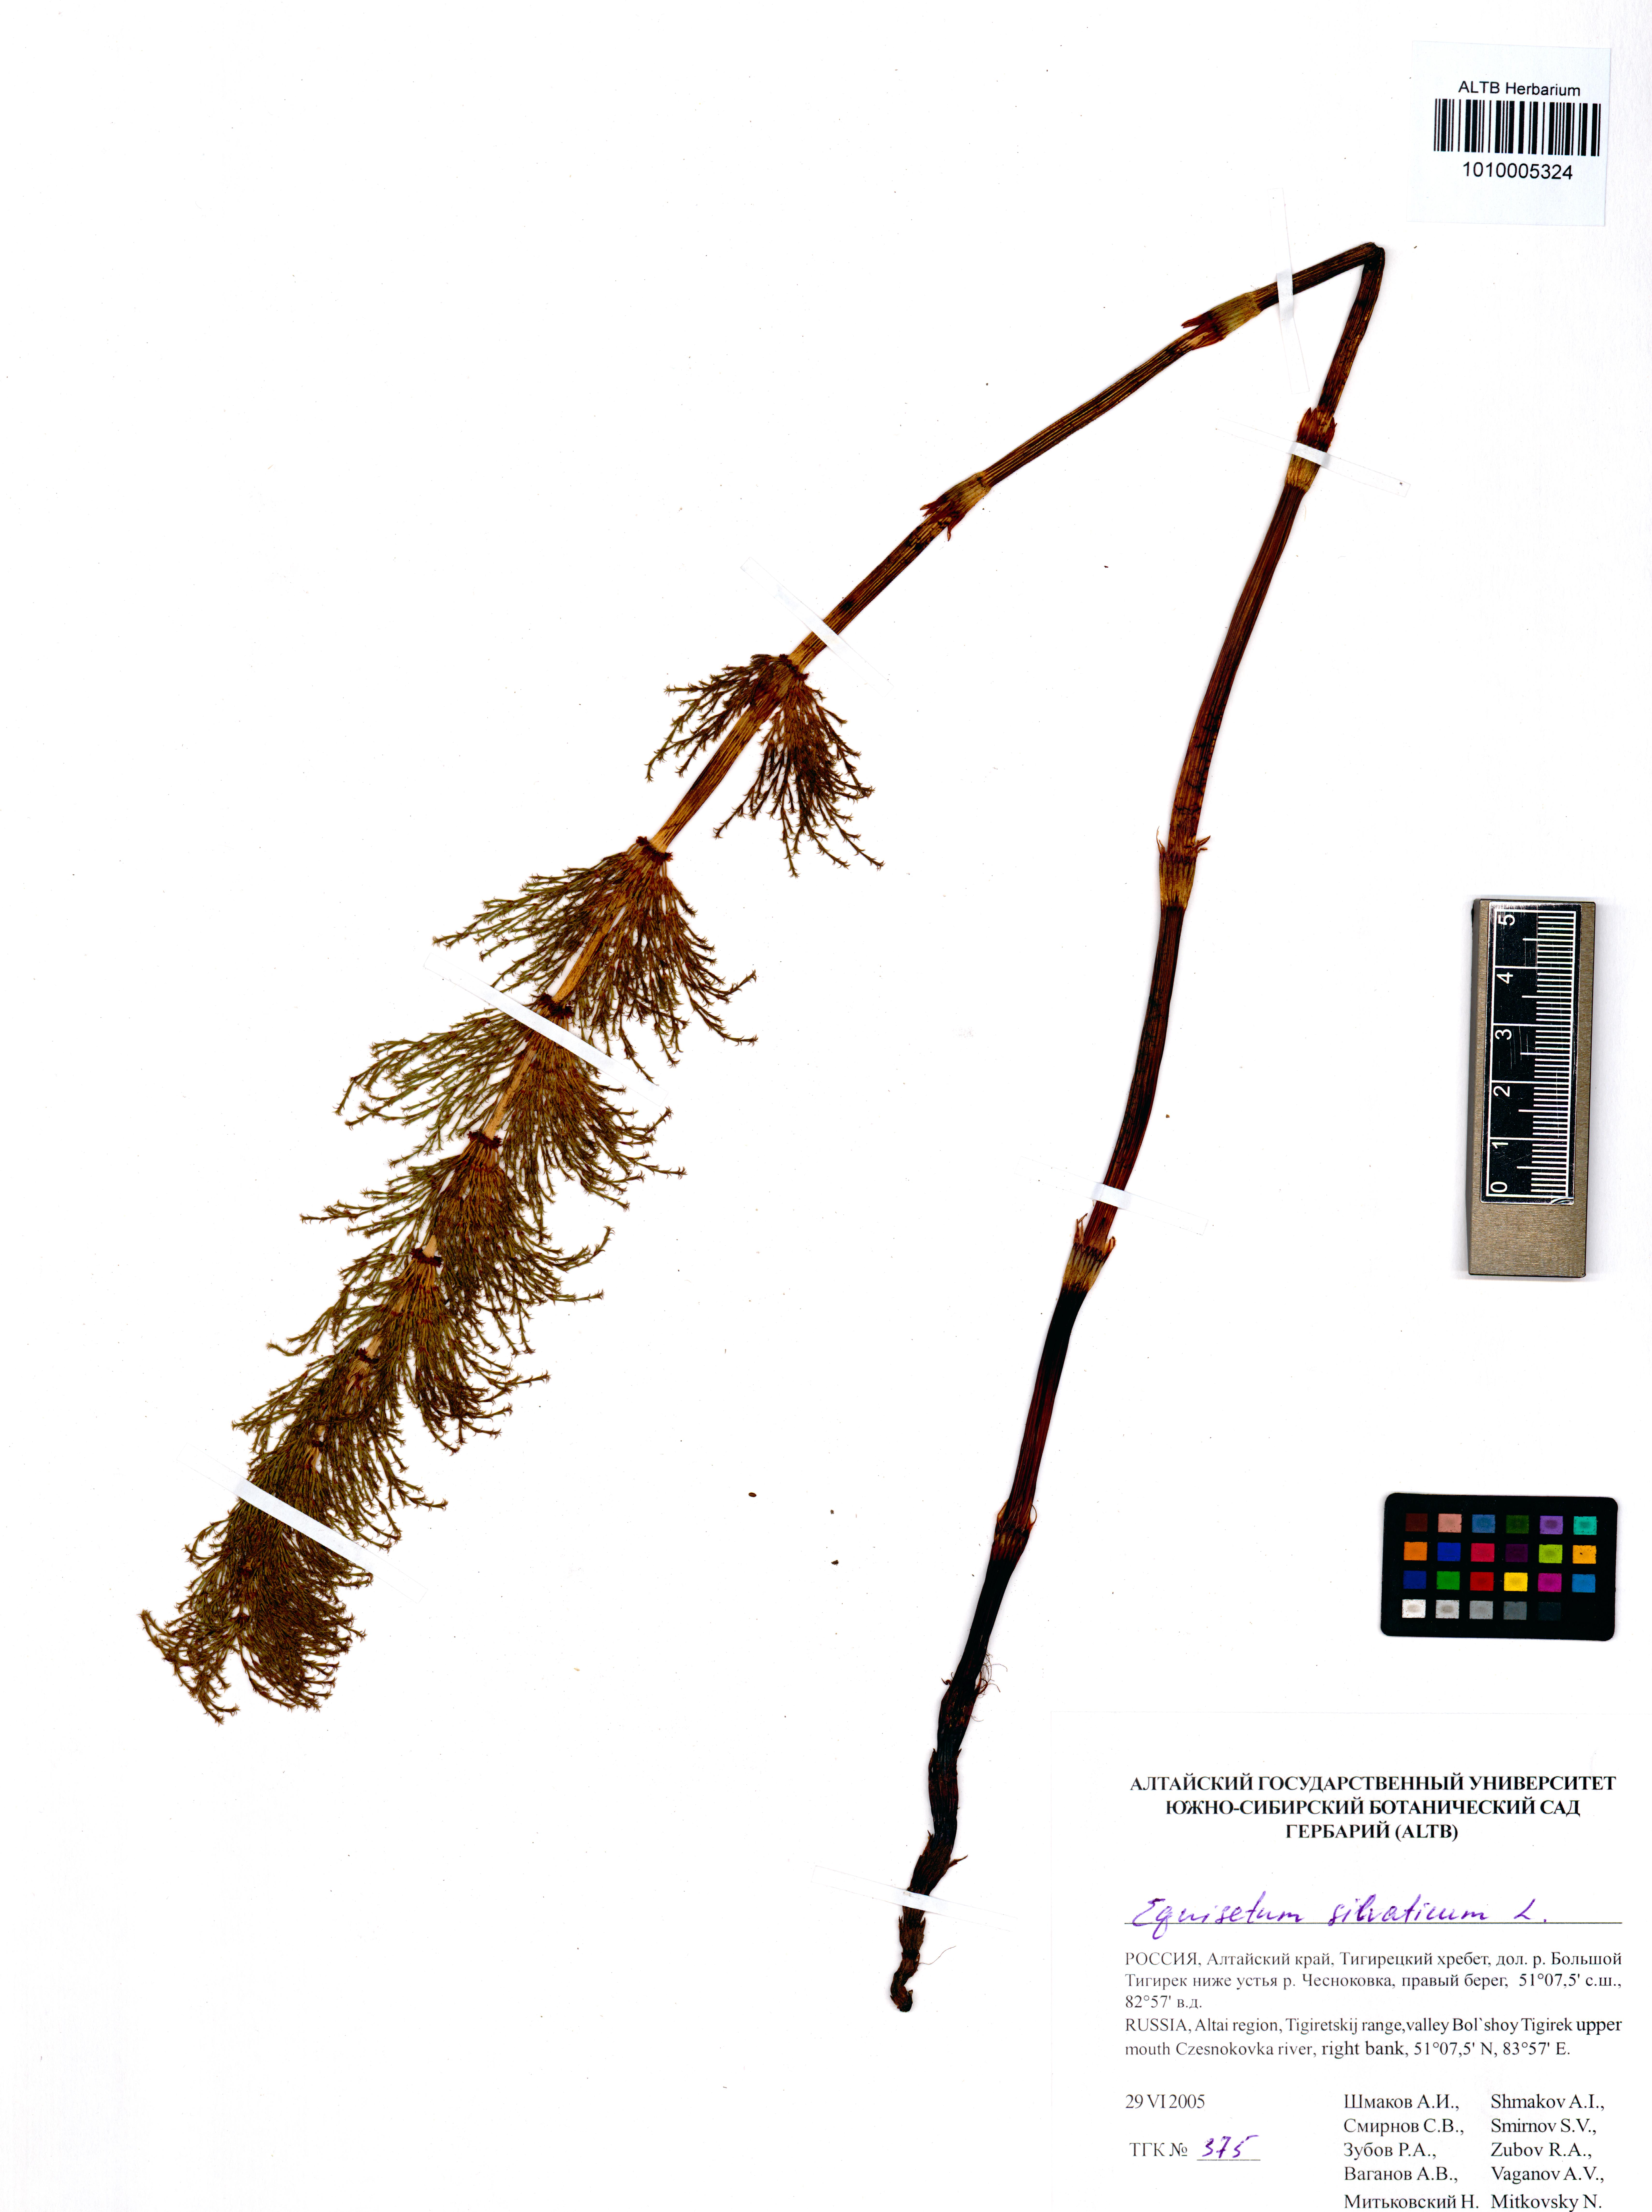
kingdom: Plantae
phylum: Tracheophyta
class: Polypodiopsida
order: Equisetales
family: Equisetaceae
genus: Equisetum
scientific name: Equisetum sylvaticum
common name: Wood horsetail
